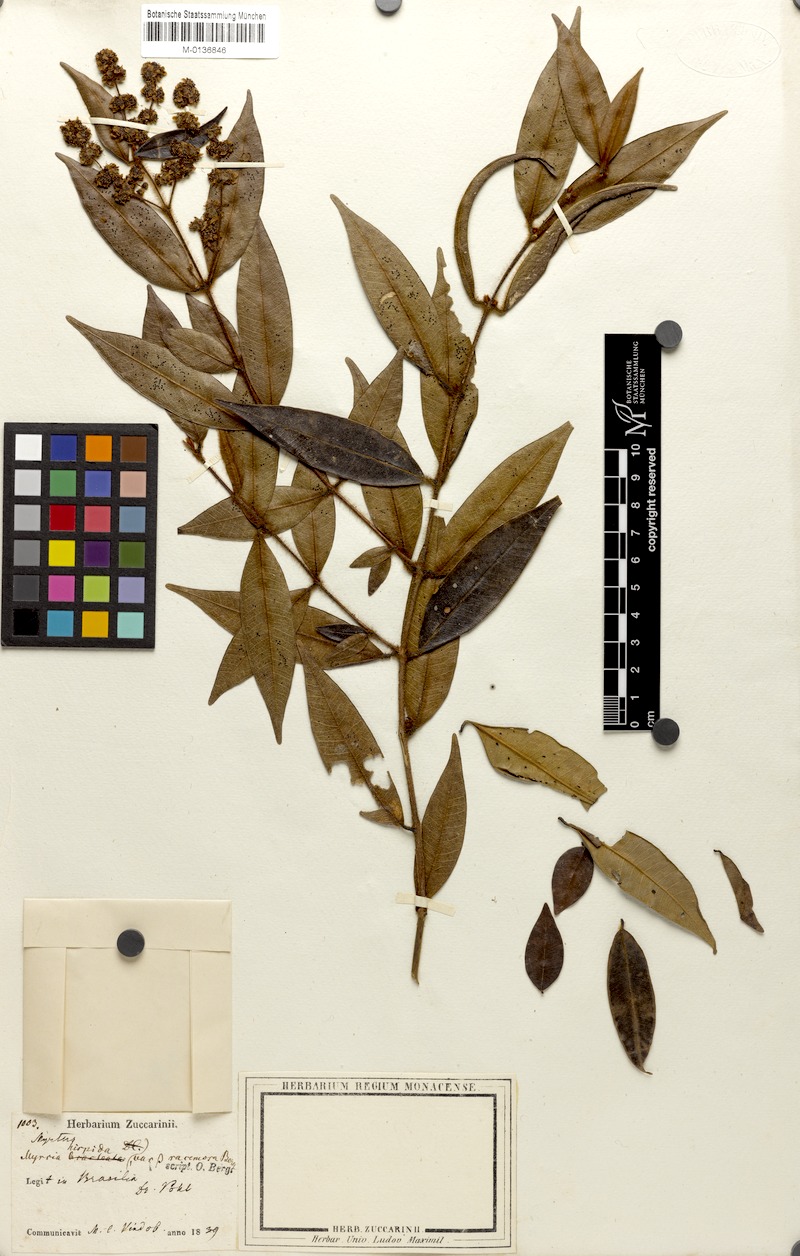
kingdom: Plantae
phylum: Tracheophyta
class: Magnoliopsida
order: Myrtales
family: Myrtaceae
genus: Myrcia
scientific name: Myrcia hispida
